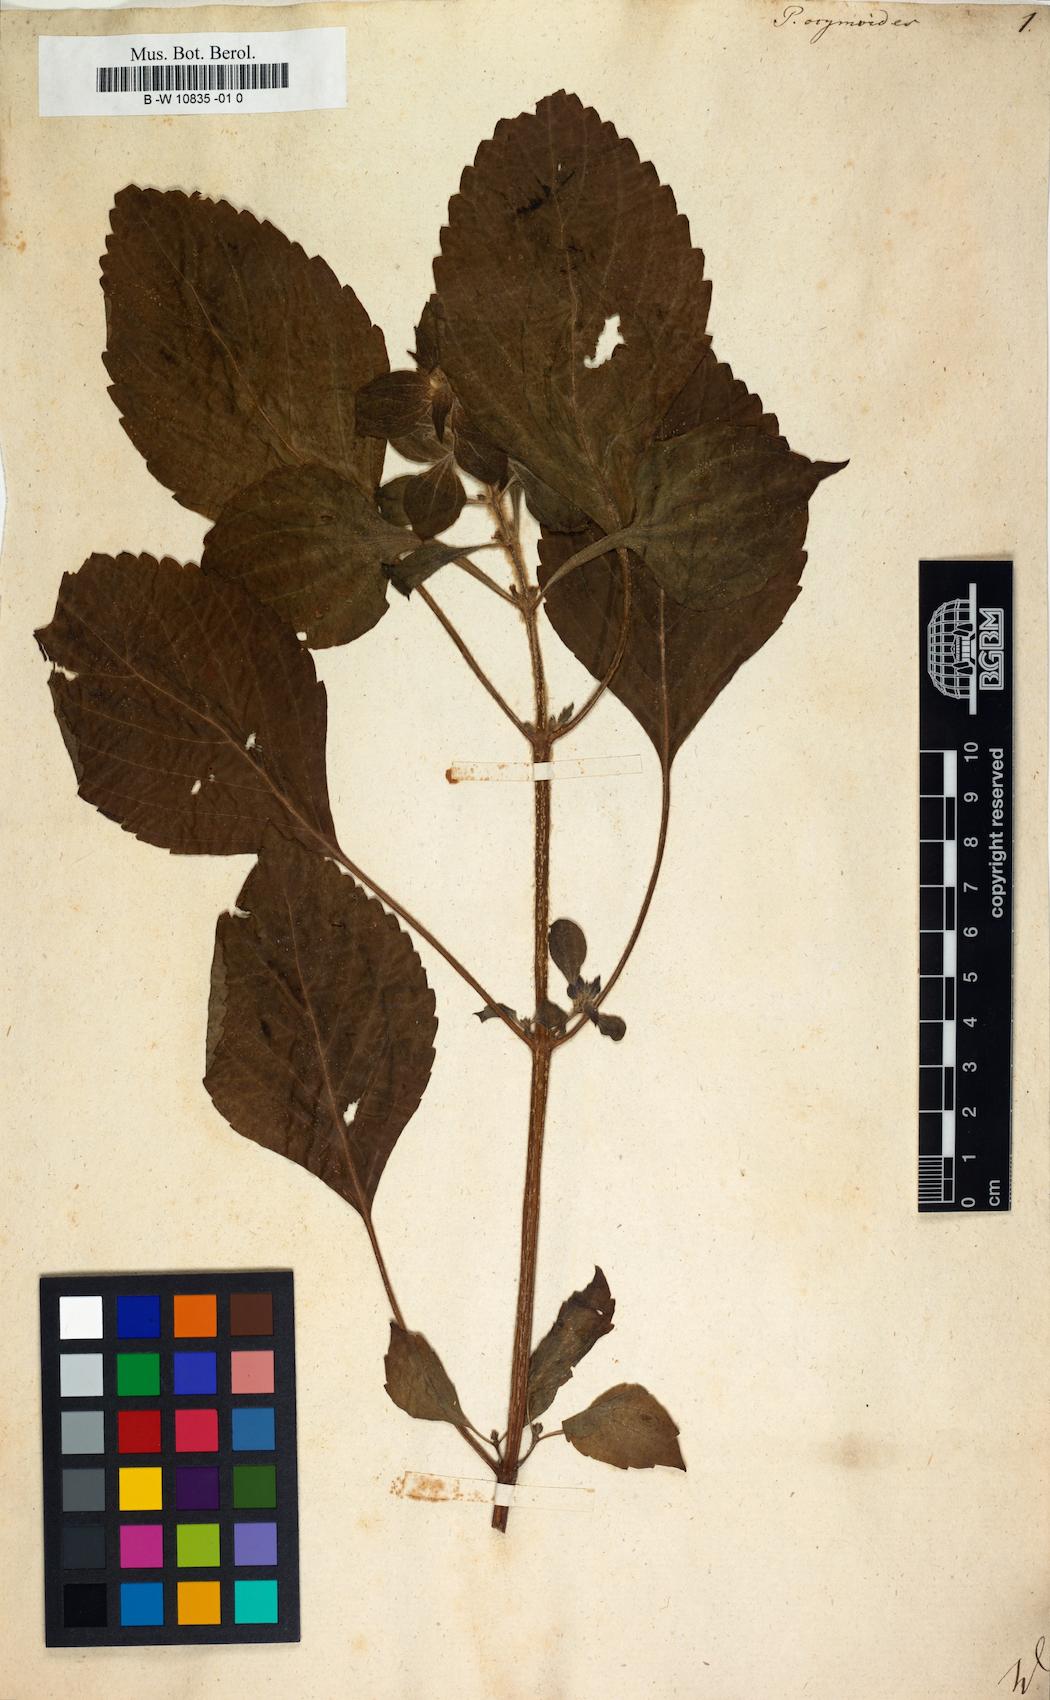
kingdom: Plantae
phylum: Tracheophyta
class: Magnoliopsida
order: Lamiales
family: Lamiaceae
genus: Perilla
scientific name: Perilla frutescens
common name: Perilla
